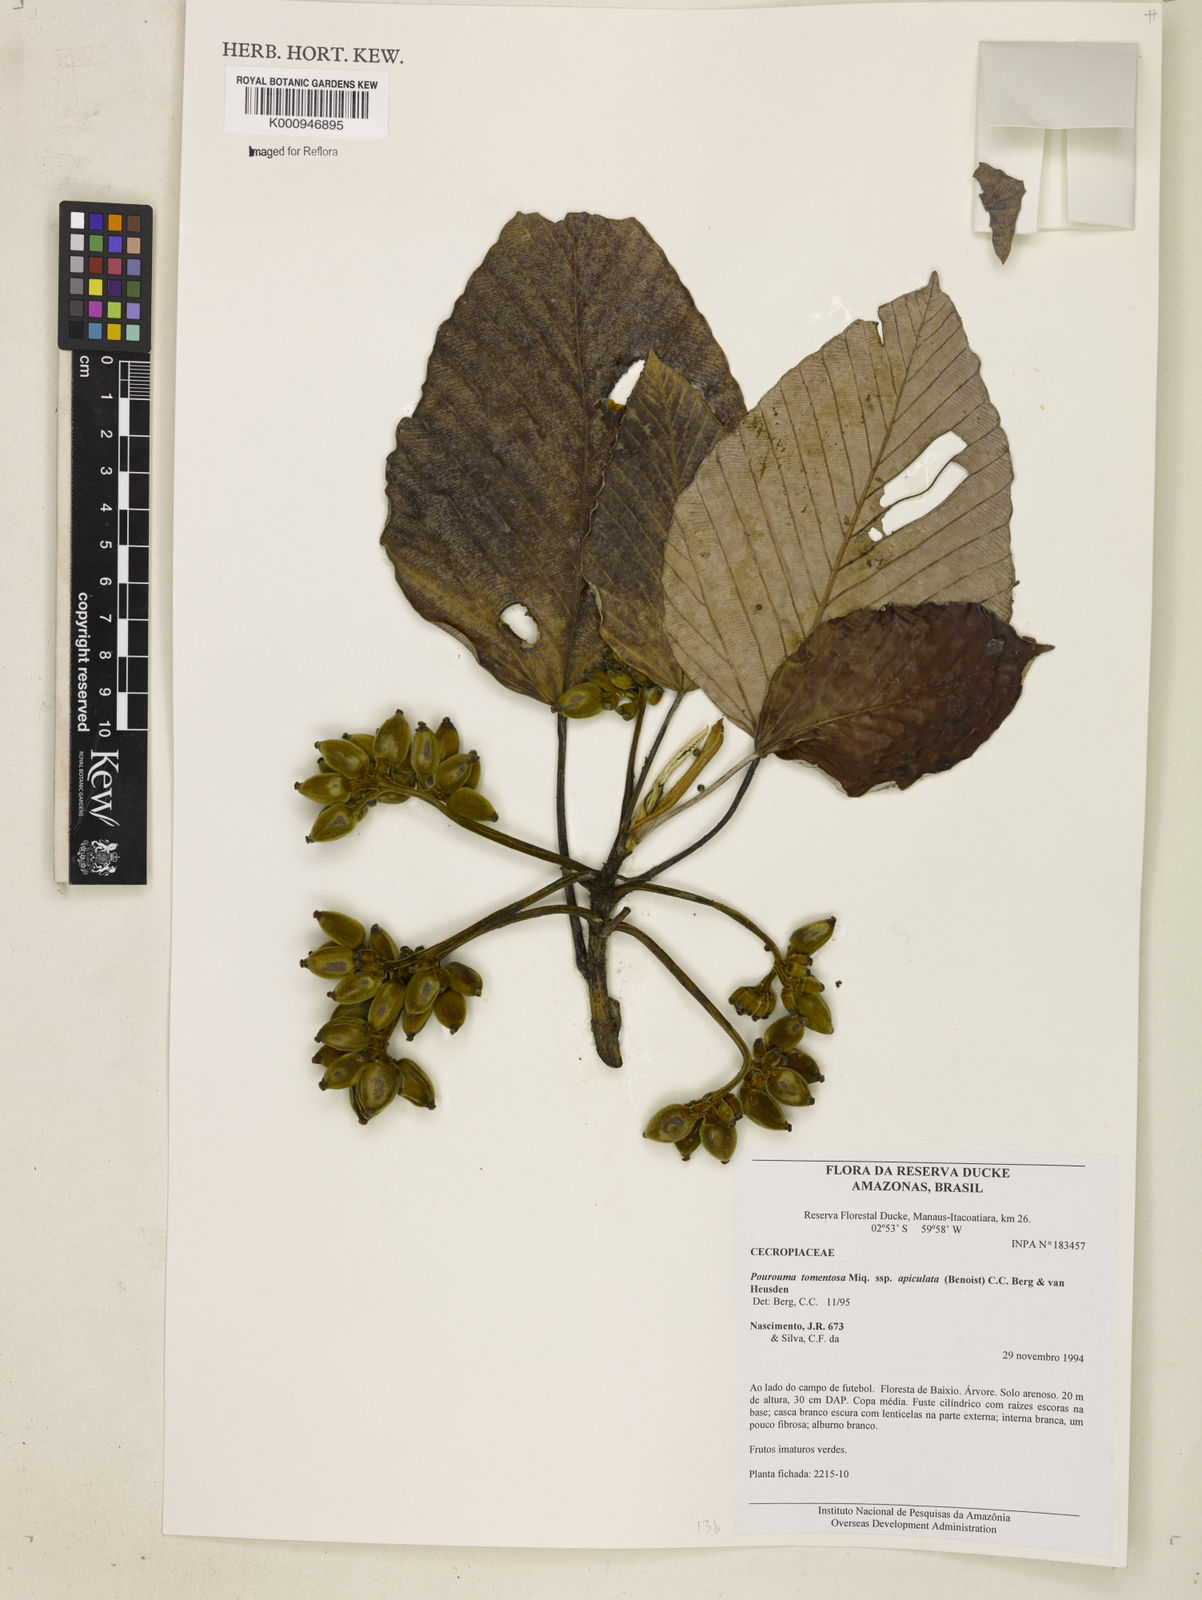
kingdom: Plantae
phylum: Tracheophyta
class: Magnoliopsida
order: Rosales
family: Urticaceae
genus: Pourouma
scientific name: Pourouma tomentosa
